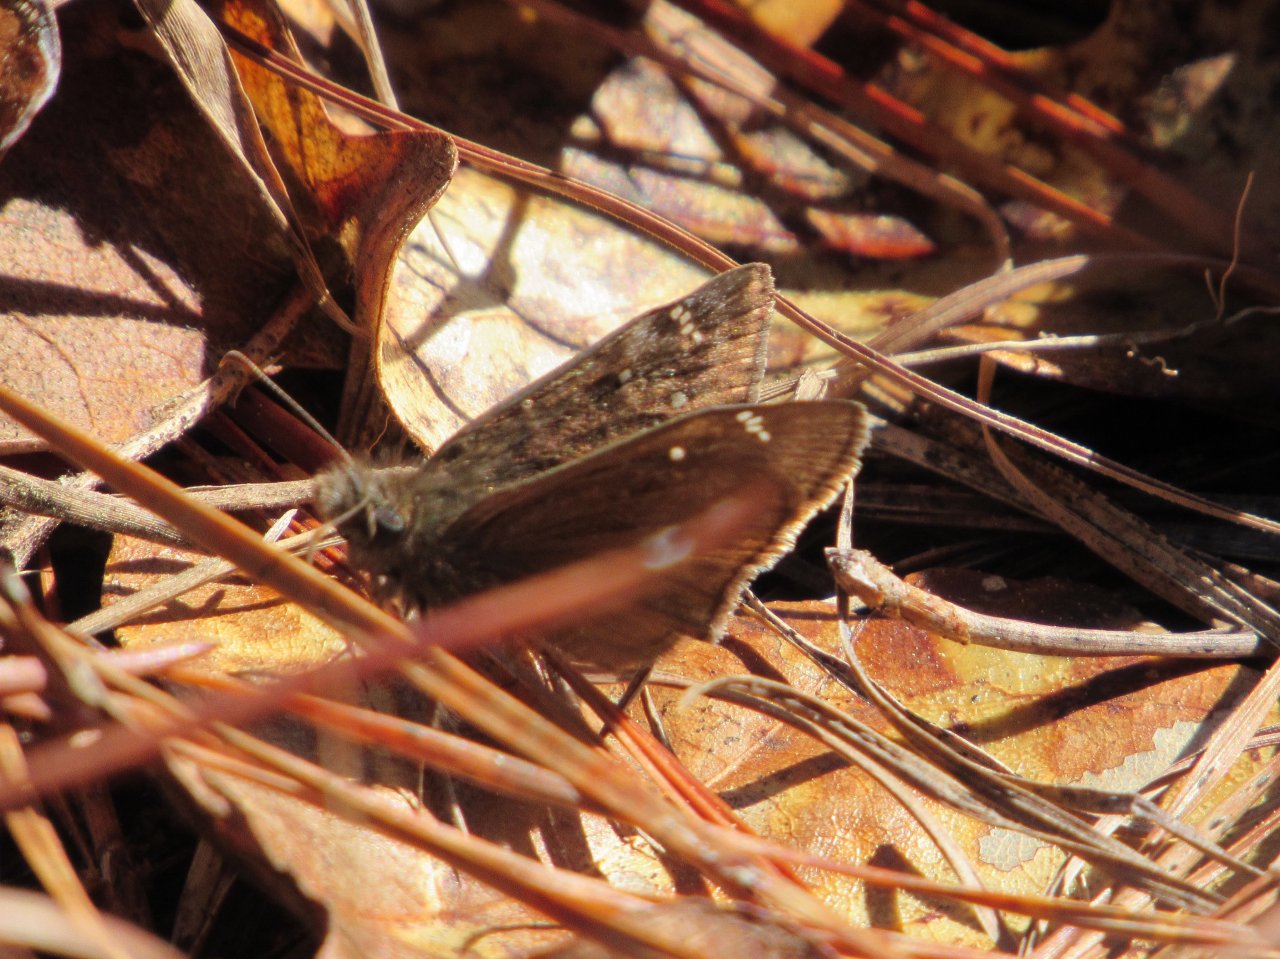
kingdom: Animalia
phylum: Arthropoda
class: Insecta
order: Lepidoptera
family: Hesperiidae
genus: Gesta
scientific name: Gesta
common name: Juvenal's Duskywing
